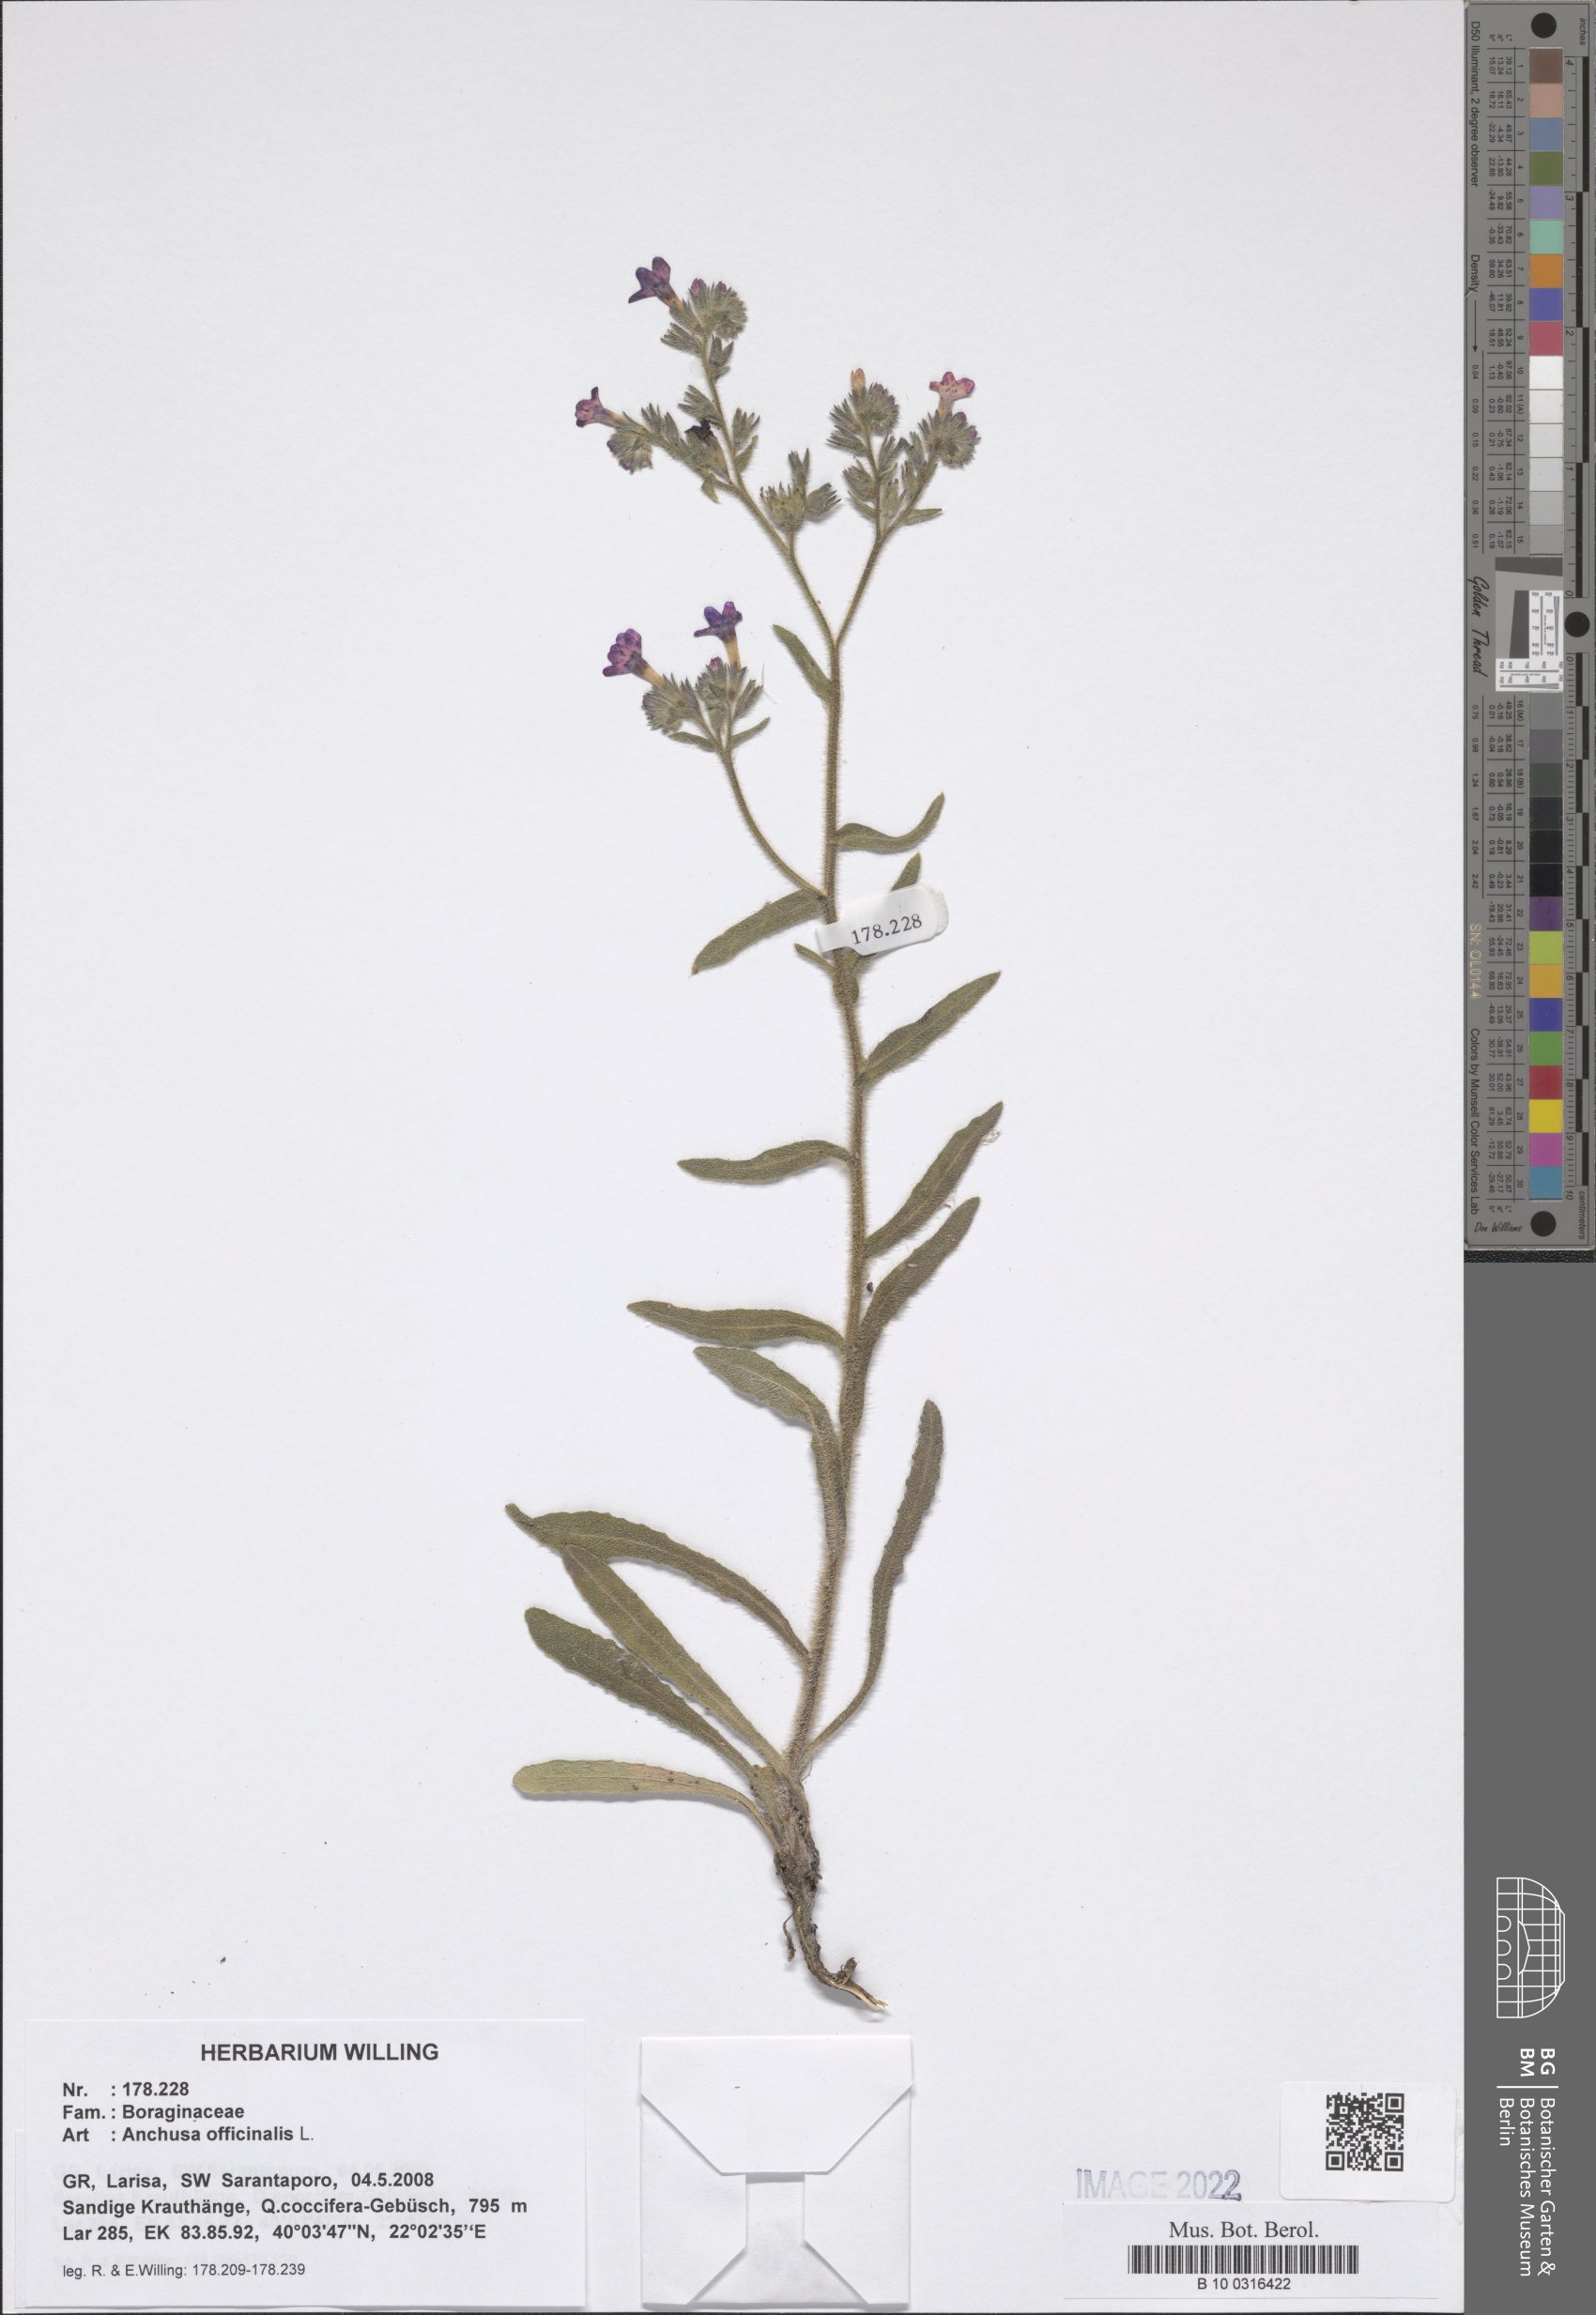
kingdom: Plantae
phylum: Tracheophyta
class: Magnoliopsida
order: Boraginales
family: Boraginaceae
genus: Anchusa
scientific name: Anchusa officinalis
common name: Alkanet
